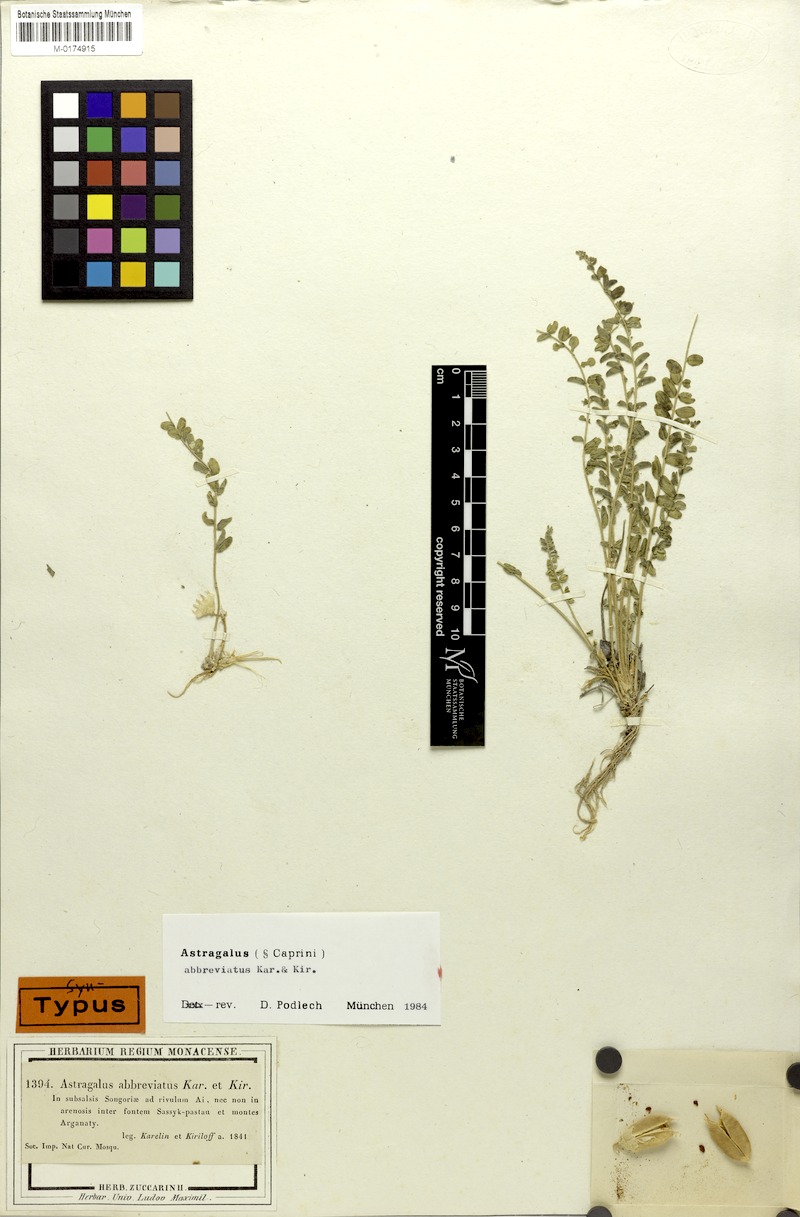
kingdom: Plantae
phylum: Tracheophyta
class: Magnoliopsida
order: Fabales
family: Fabaceae
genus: Astragalus
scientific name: Astragalus abbreviatus
